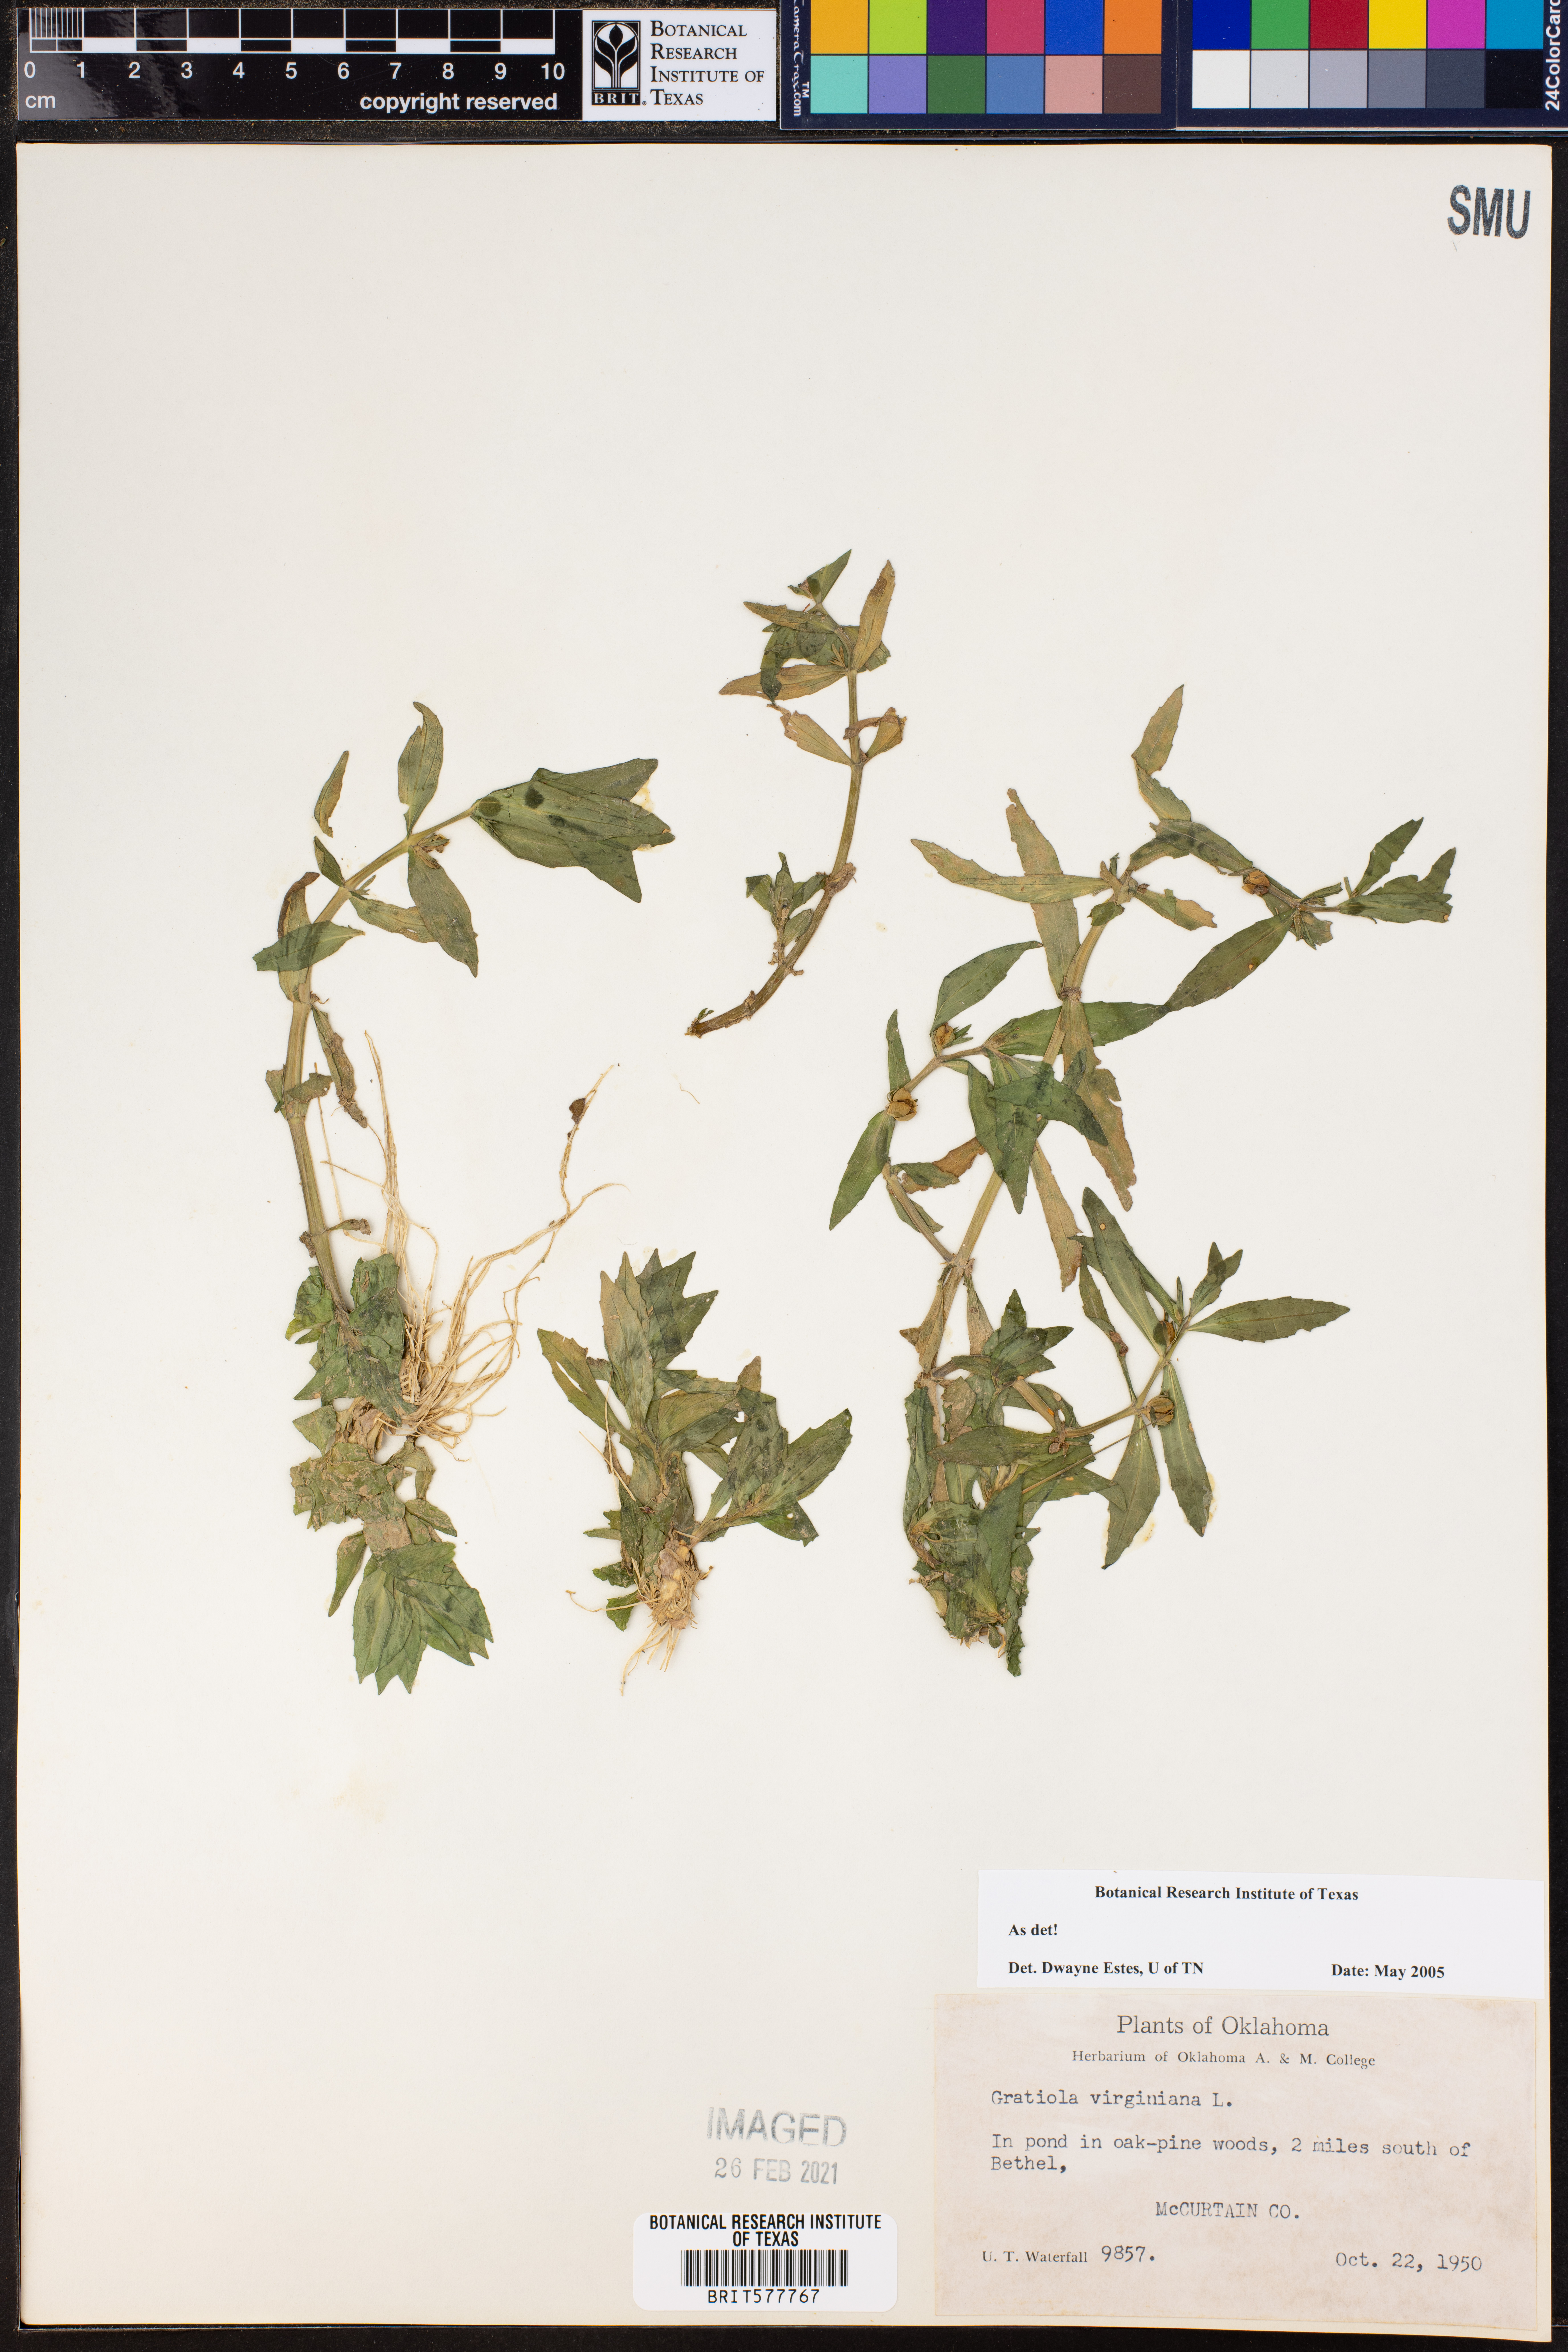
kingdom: Plantae
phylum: Tracheophyta
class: Magnoliopsida
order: Lamiales
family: Plantaginaceae
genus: Gratiola
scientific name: Gratiola virginiana
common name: Roundfruit hedgehyssop
